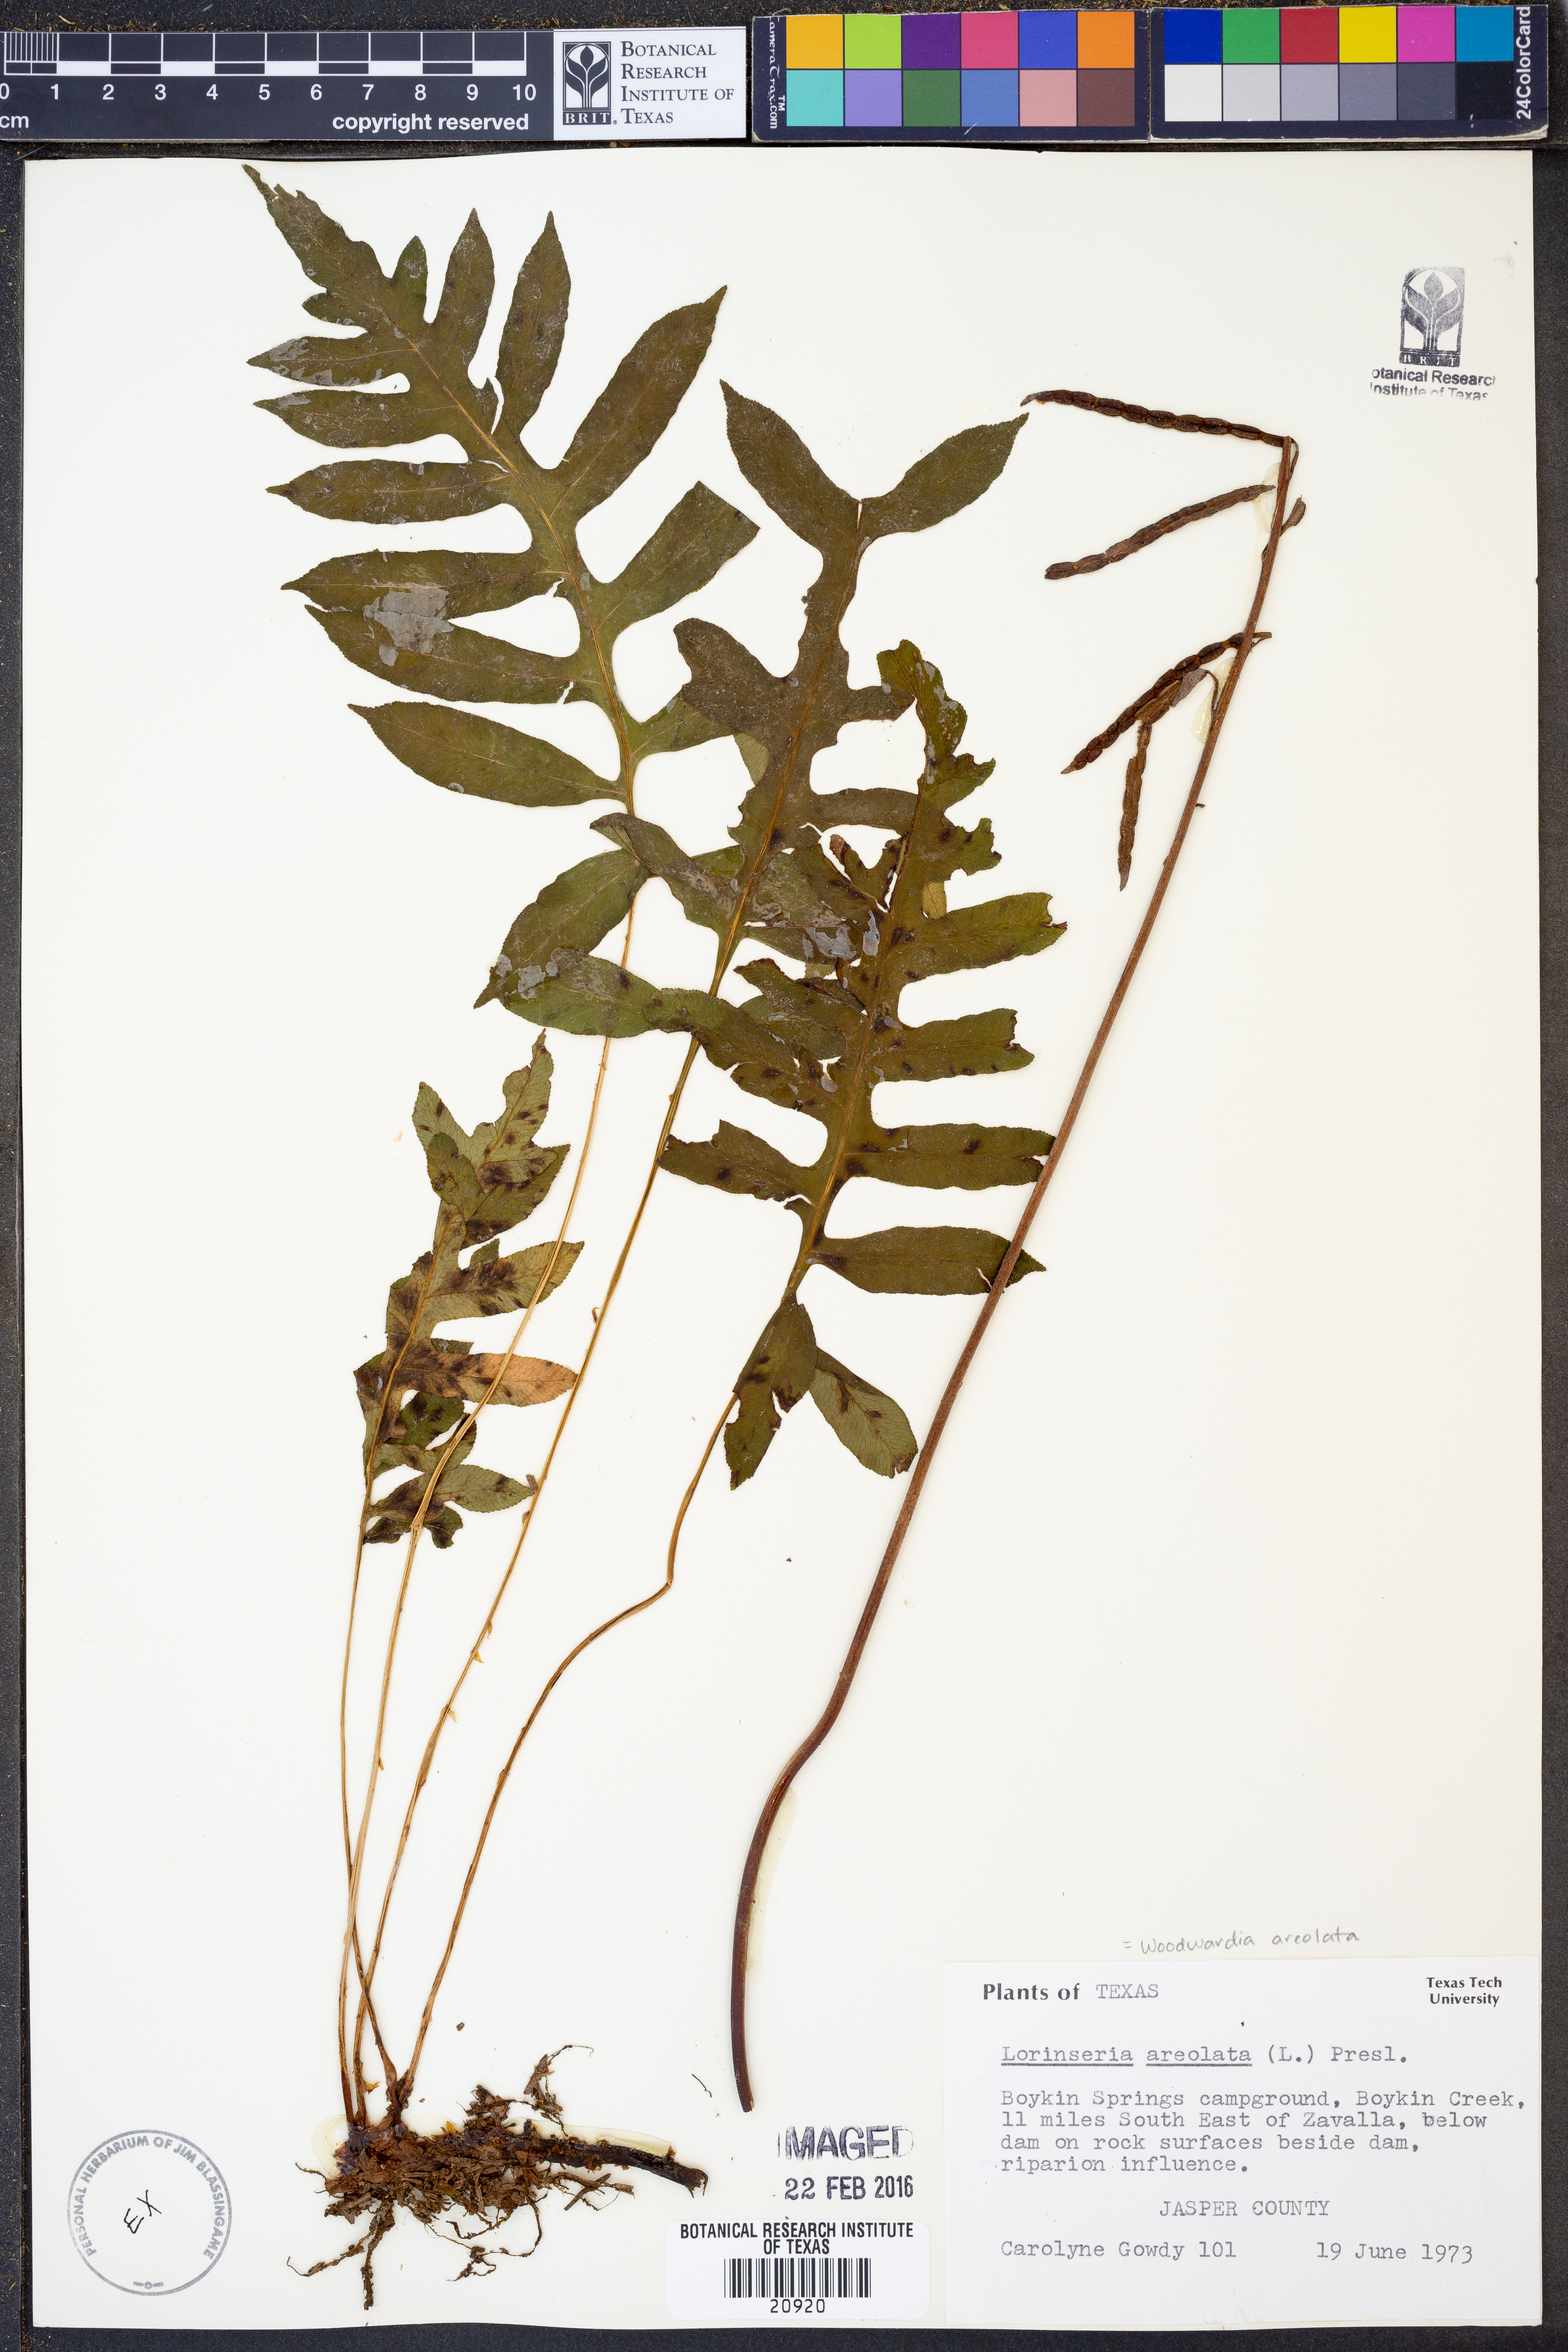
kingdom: Plantae
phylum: Tracheophyta
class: Polypodiopsida
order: Polypodiales
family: Blechnaceae
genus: Lorinseria
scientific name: Lorinseria areolata
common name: Dwarf chain fern
